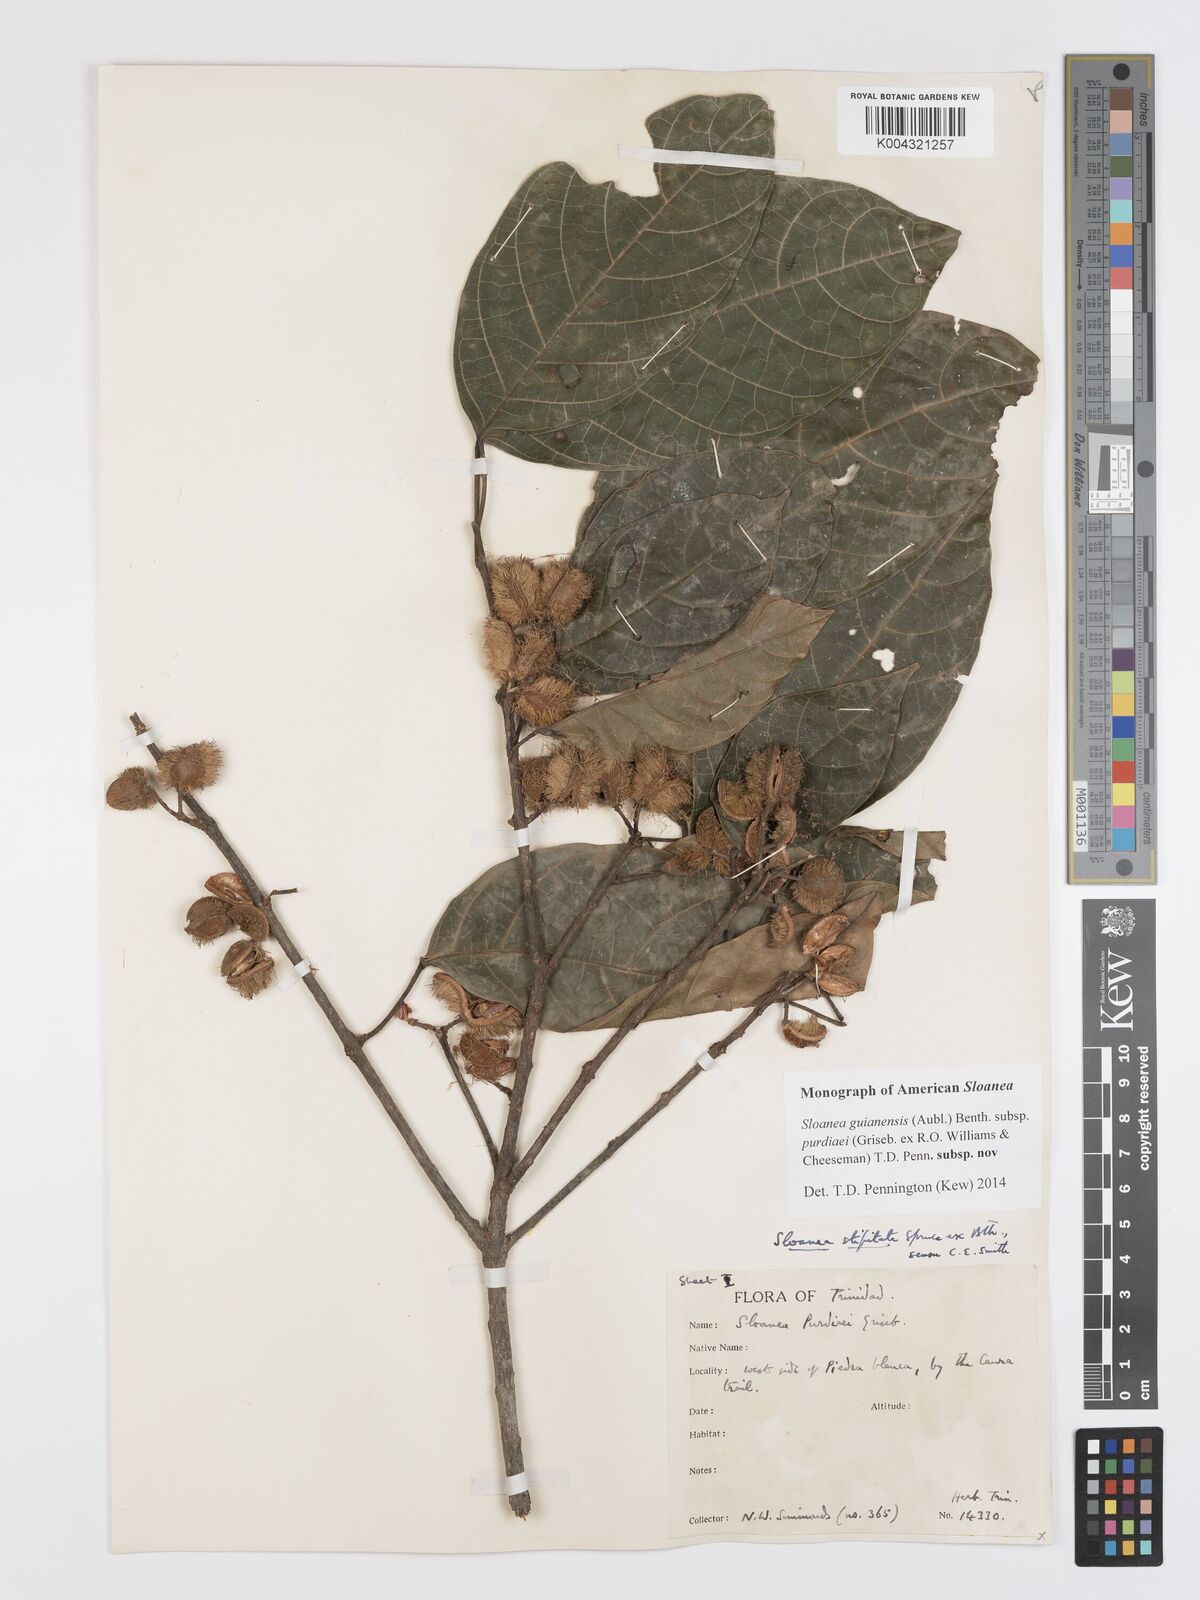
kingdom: Plantae
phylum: Tracheophyta
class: Magnoliopsida
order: Oxalidales
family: Elaeocarpaceae
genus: Sloanea
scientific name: Sloanea guianensis
